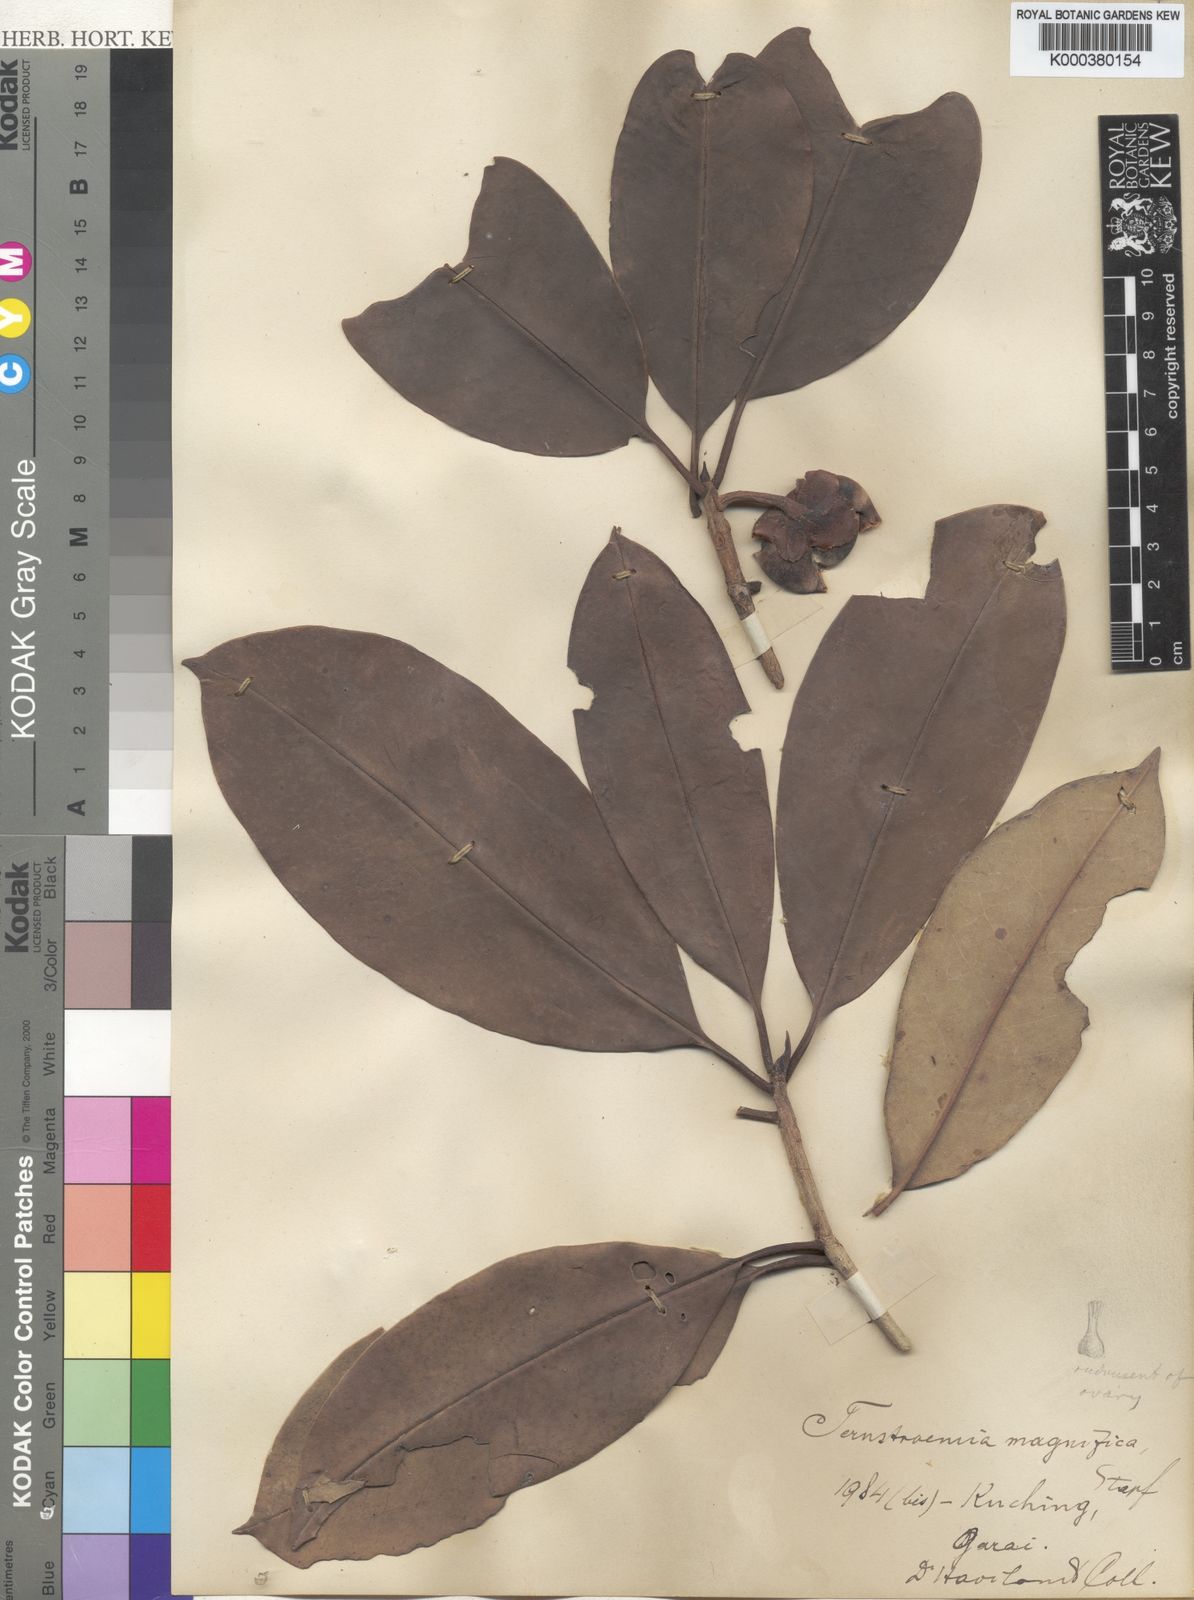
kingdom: Plantae
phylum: Tracheophyta
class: Magnoliopsida
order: Ericales
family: Pentaphylacaceae
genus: Ternstroemia
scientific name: Ternstroemia magnifica
